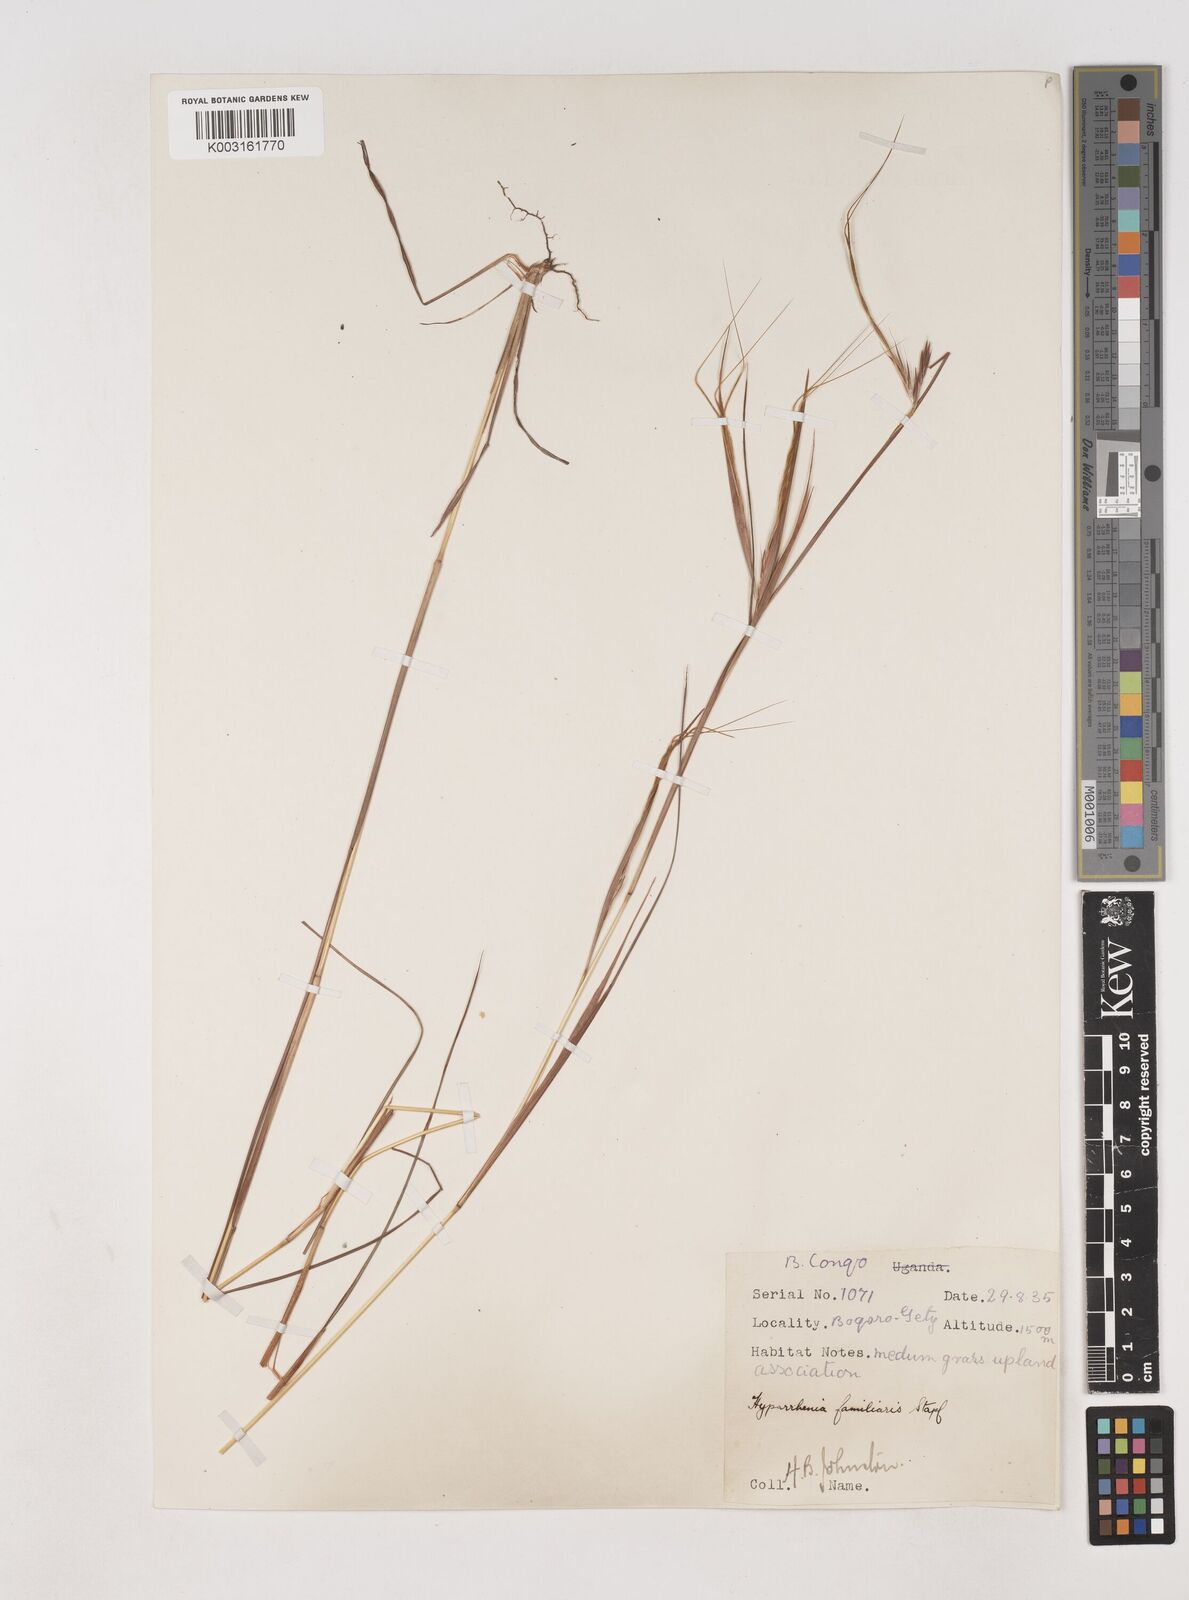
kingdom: Plantae
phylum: Tracheophyta
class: Liliopsida
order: Poales
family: Poaceae
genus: Hyparrhenia
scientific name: Hyparrhenia familiaris
